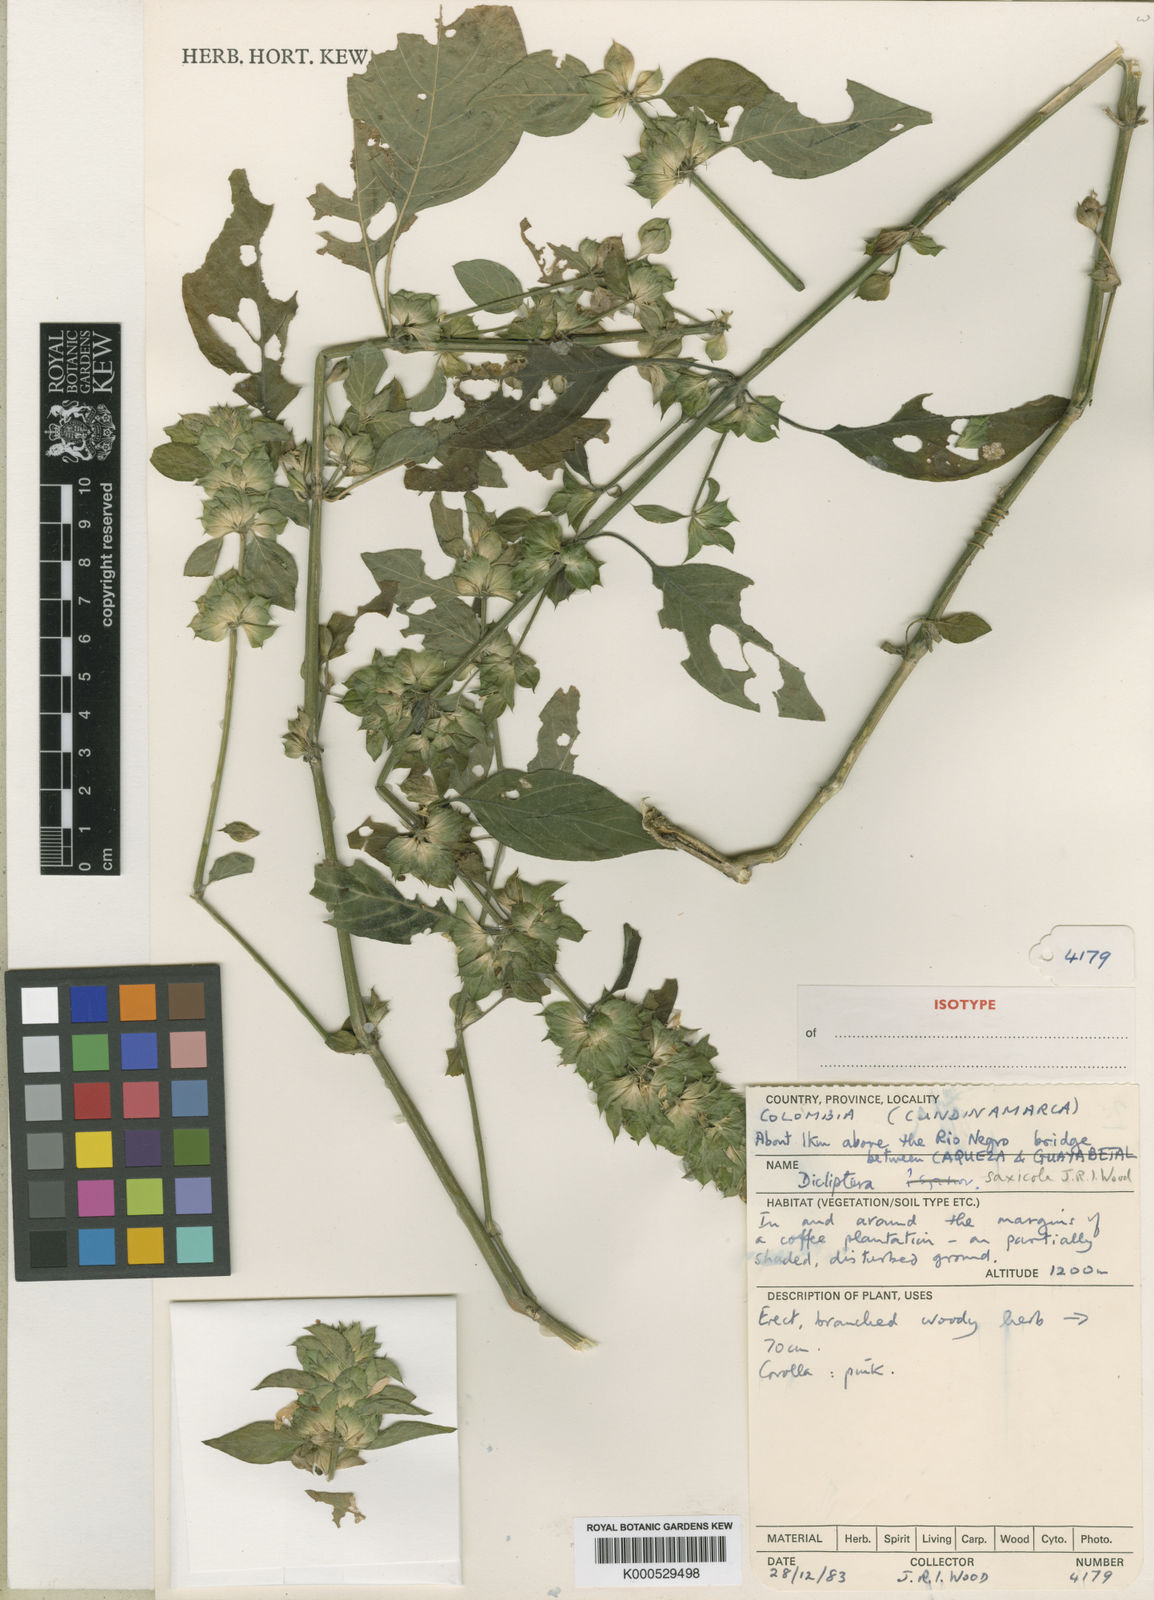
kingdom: Plantae
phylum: Tracheophyta
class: Magnoliopsida
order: Lamiales
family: Acanthaceae
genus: Dicliptera
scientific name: Dicliptera saxicola
